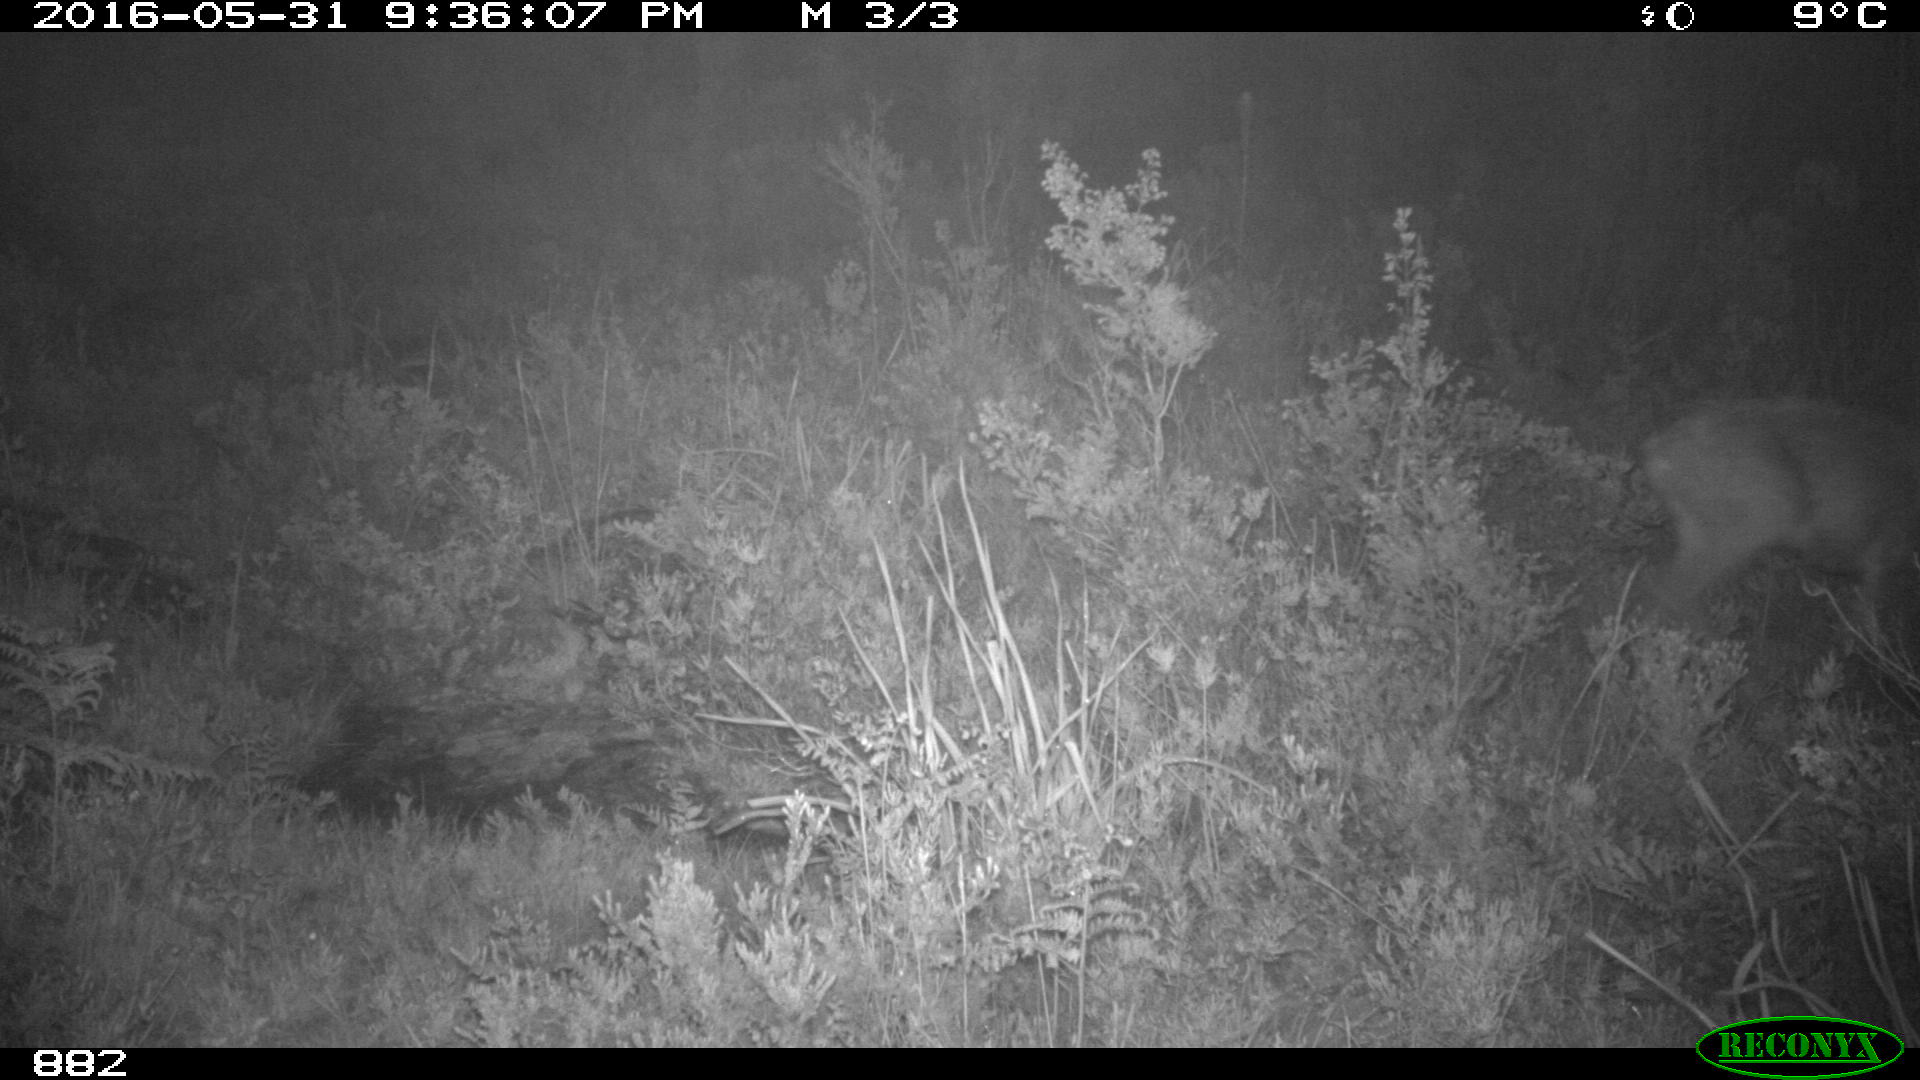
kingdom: Animalia
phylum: Chordata
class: Mammalia
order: Artiodactyla
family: Cervidae
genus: Capreolus
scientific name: Capreolus capreolus
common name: Western roe deer
